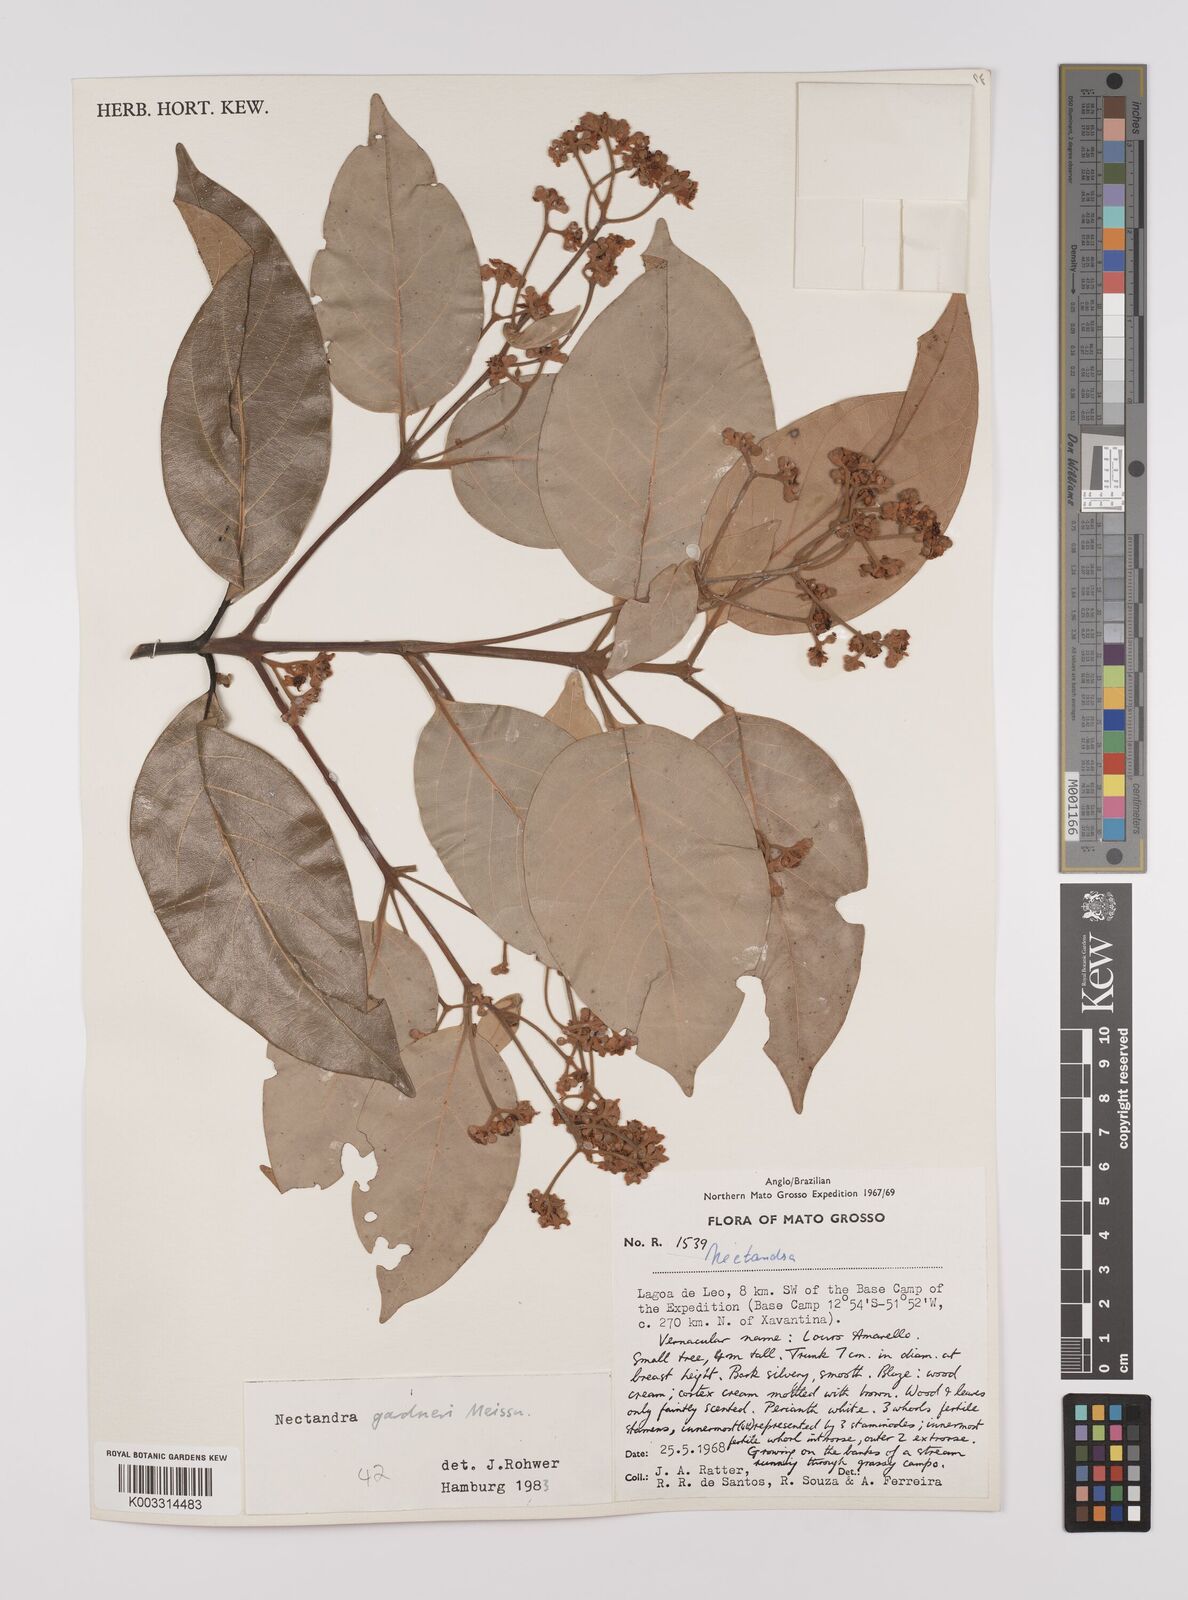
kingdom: Plantae
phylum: Tracheophyta
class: Magnoliopsida
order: Laurales
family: Lauraceae
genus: Nectandra
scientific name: Nectandra gardneri
